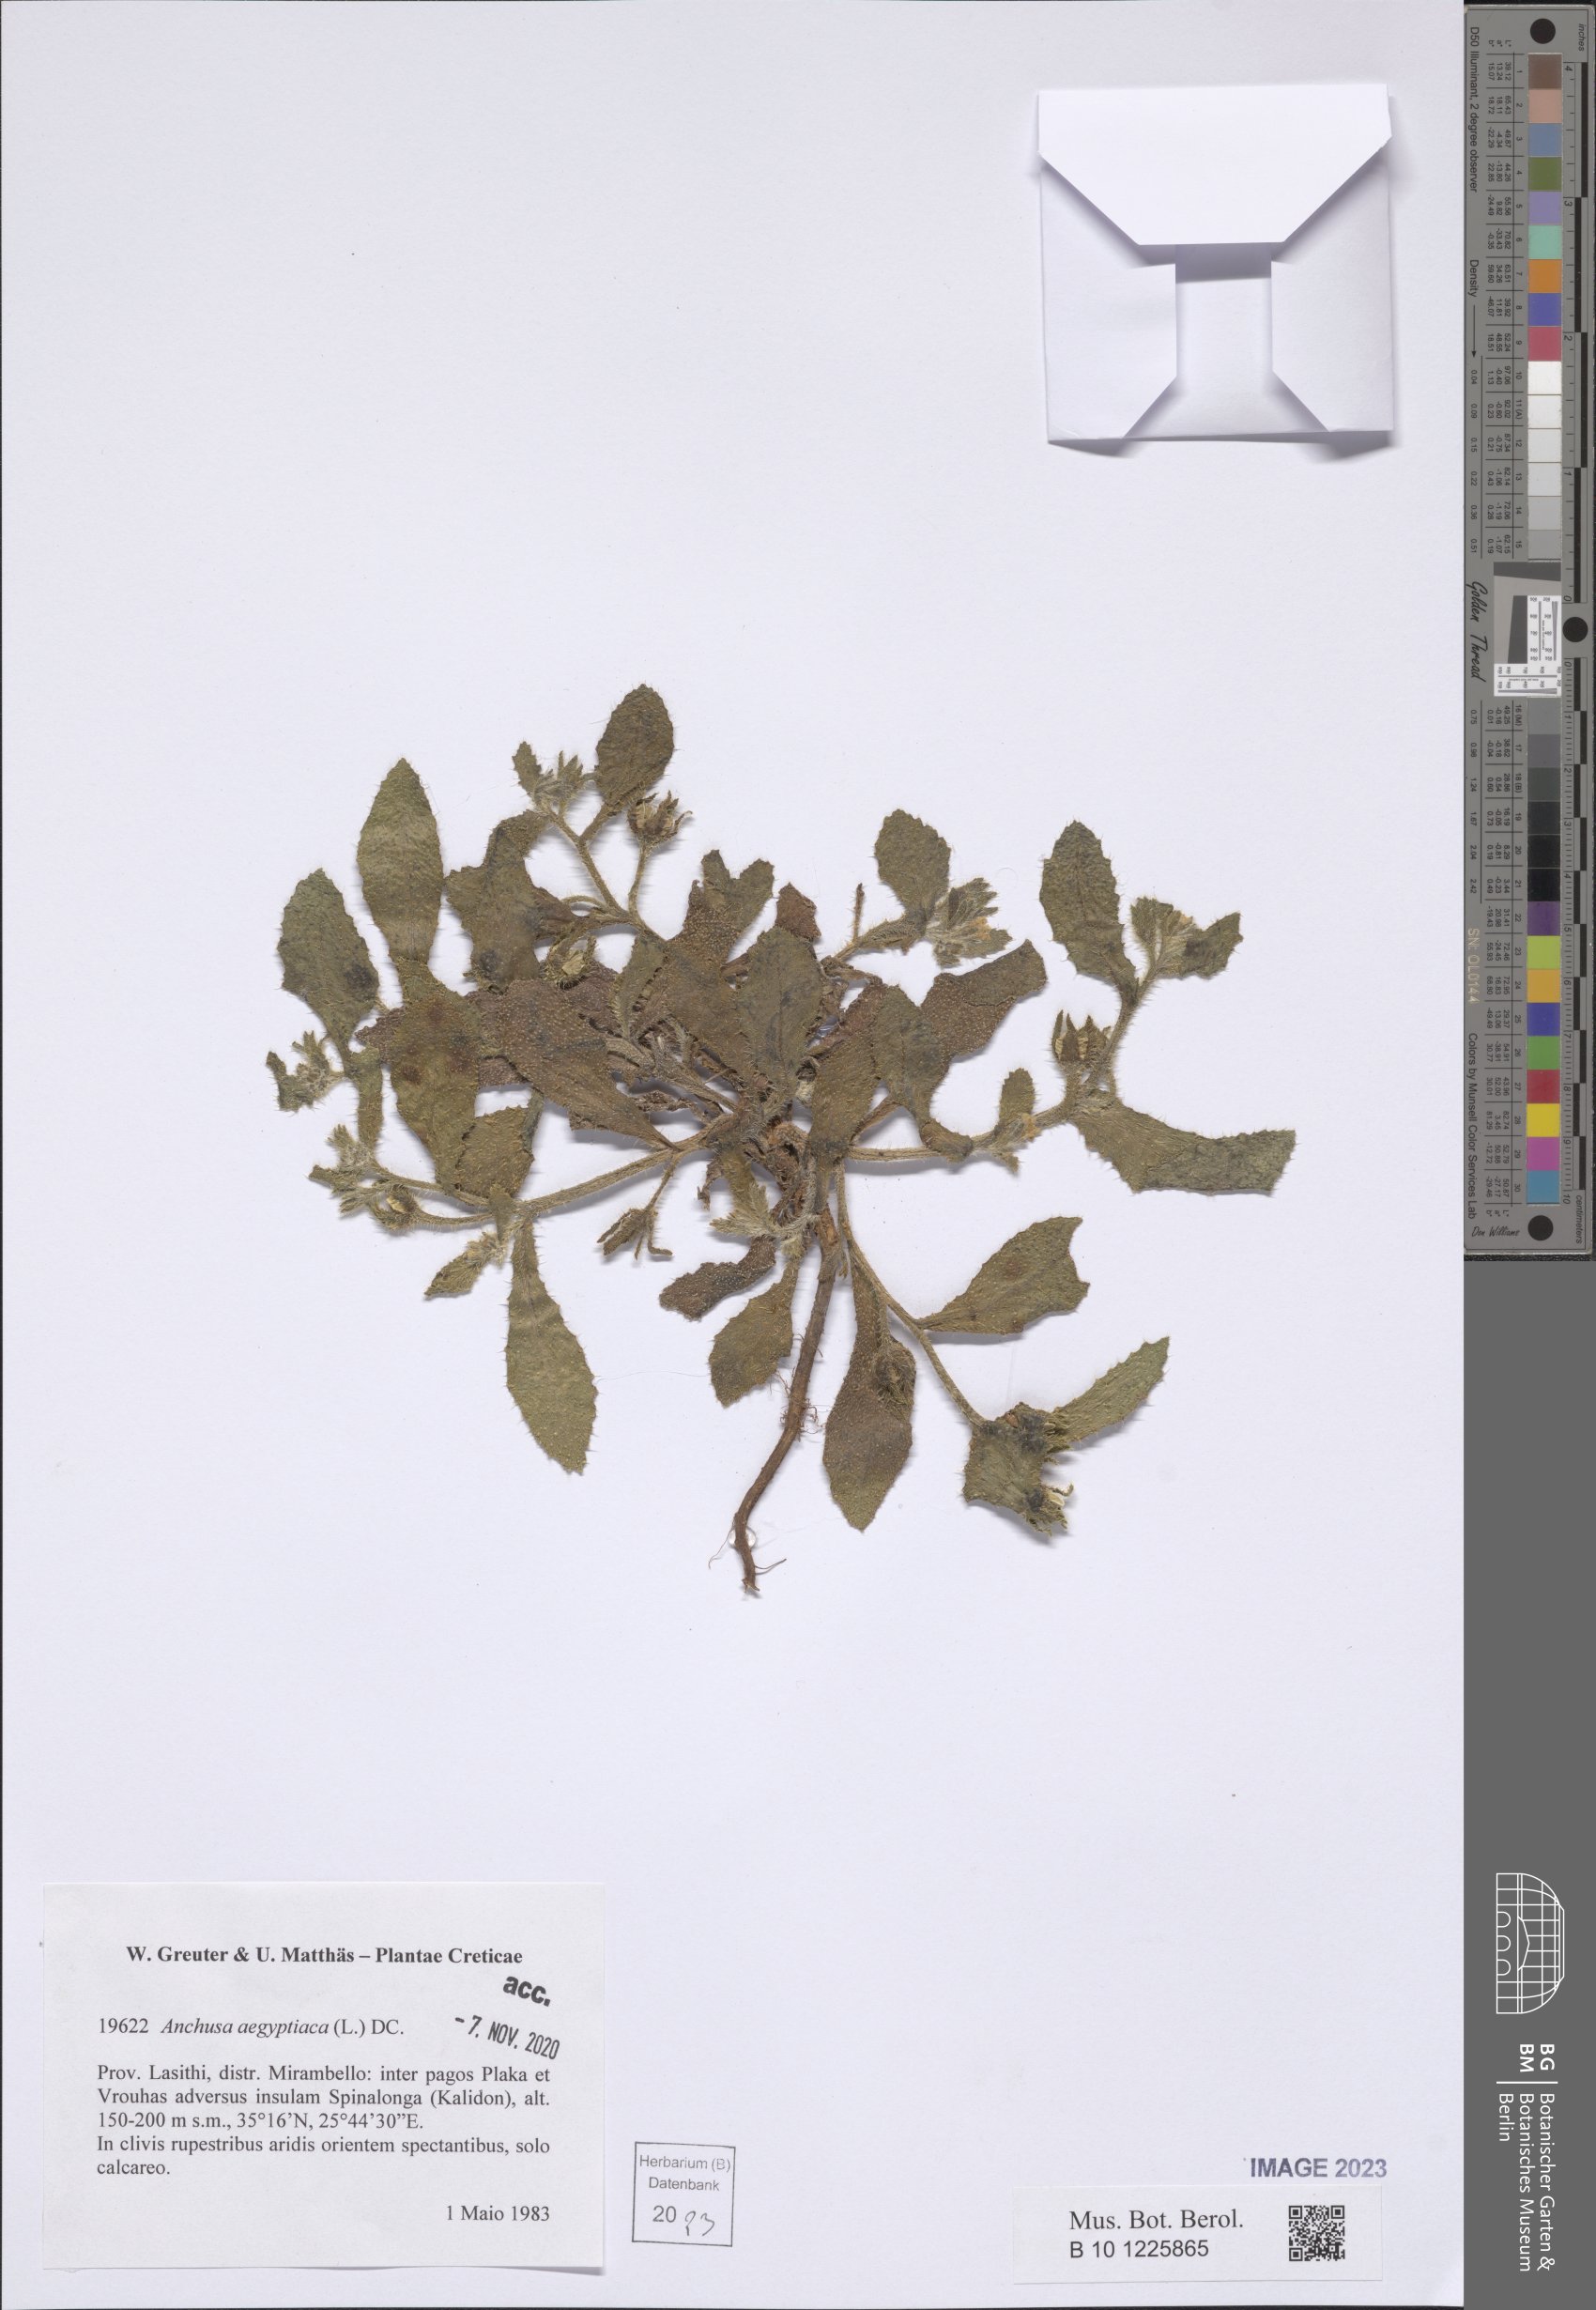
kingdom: Plantae
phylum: Tracheophyta
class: Magnoliopsida
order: Boraginales
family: Boraginaceae
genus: Lycopsis
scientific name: Lycopsis aegyptiaca
